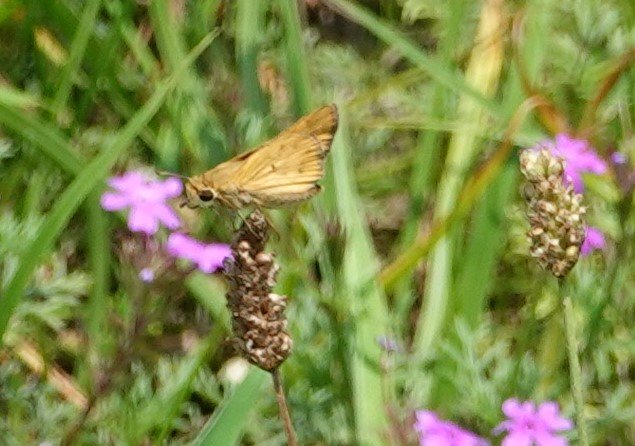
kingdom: Animalia
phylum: Arthropoda
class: Insecta
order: Lepidoptera
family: Hesperiidae
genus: Hylephila
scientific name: Hylephila phyleus
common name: Fiery Skipper
